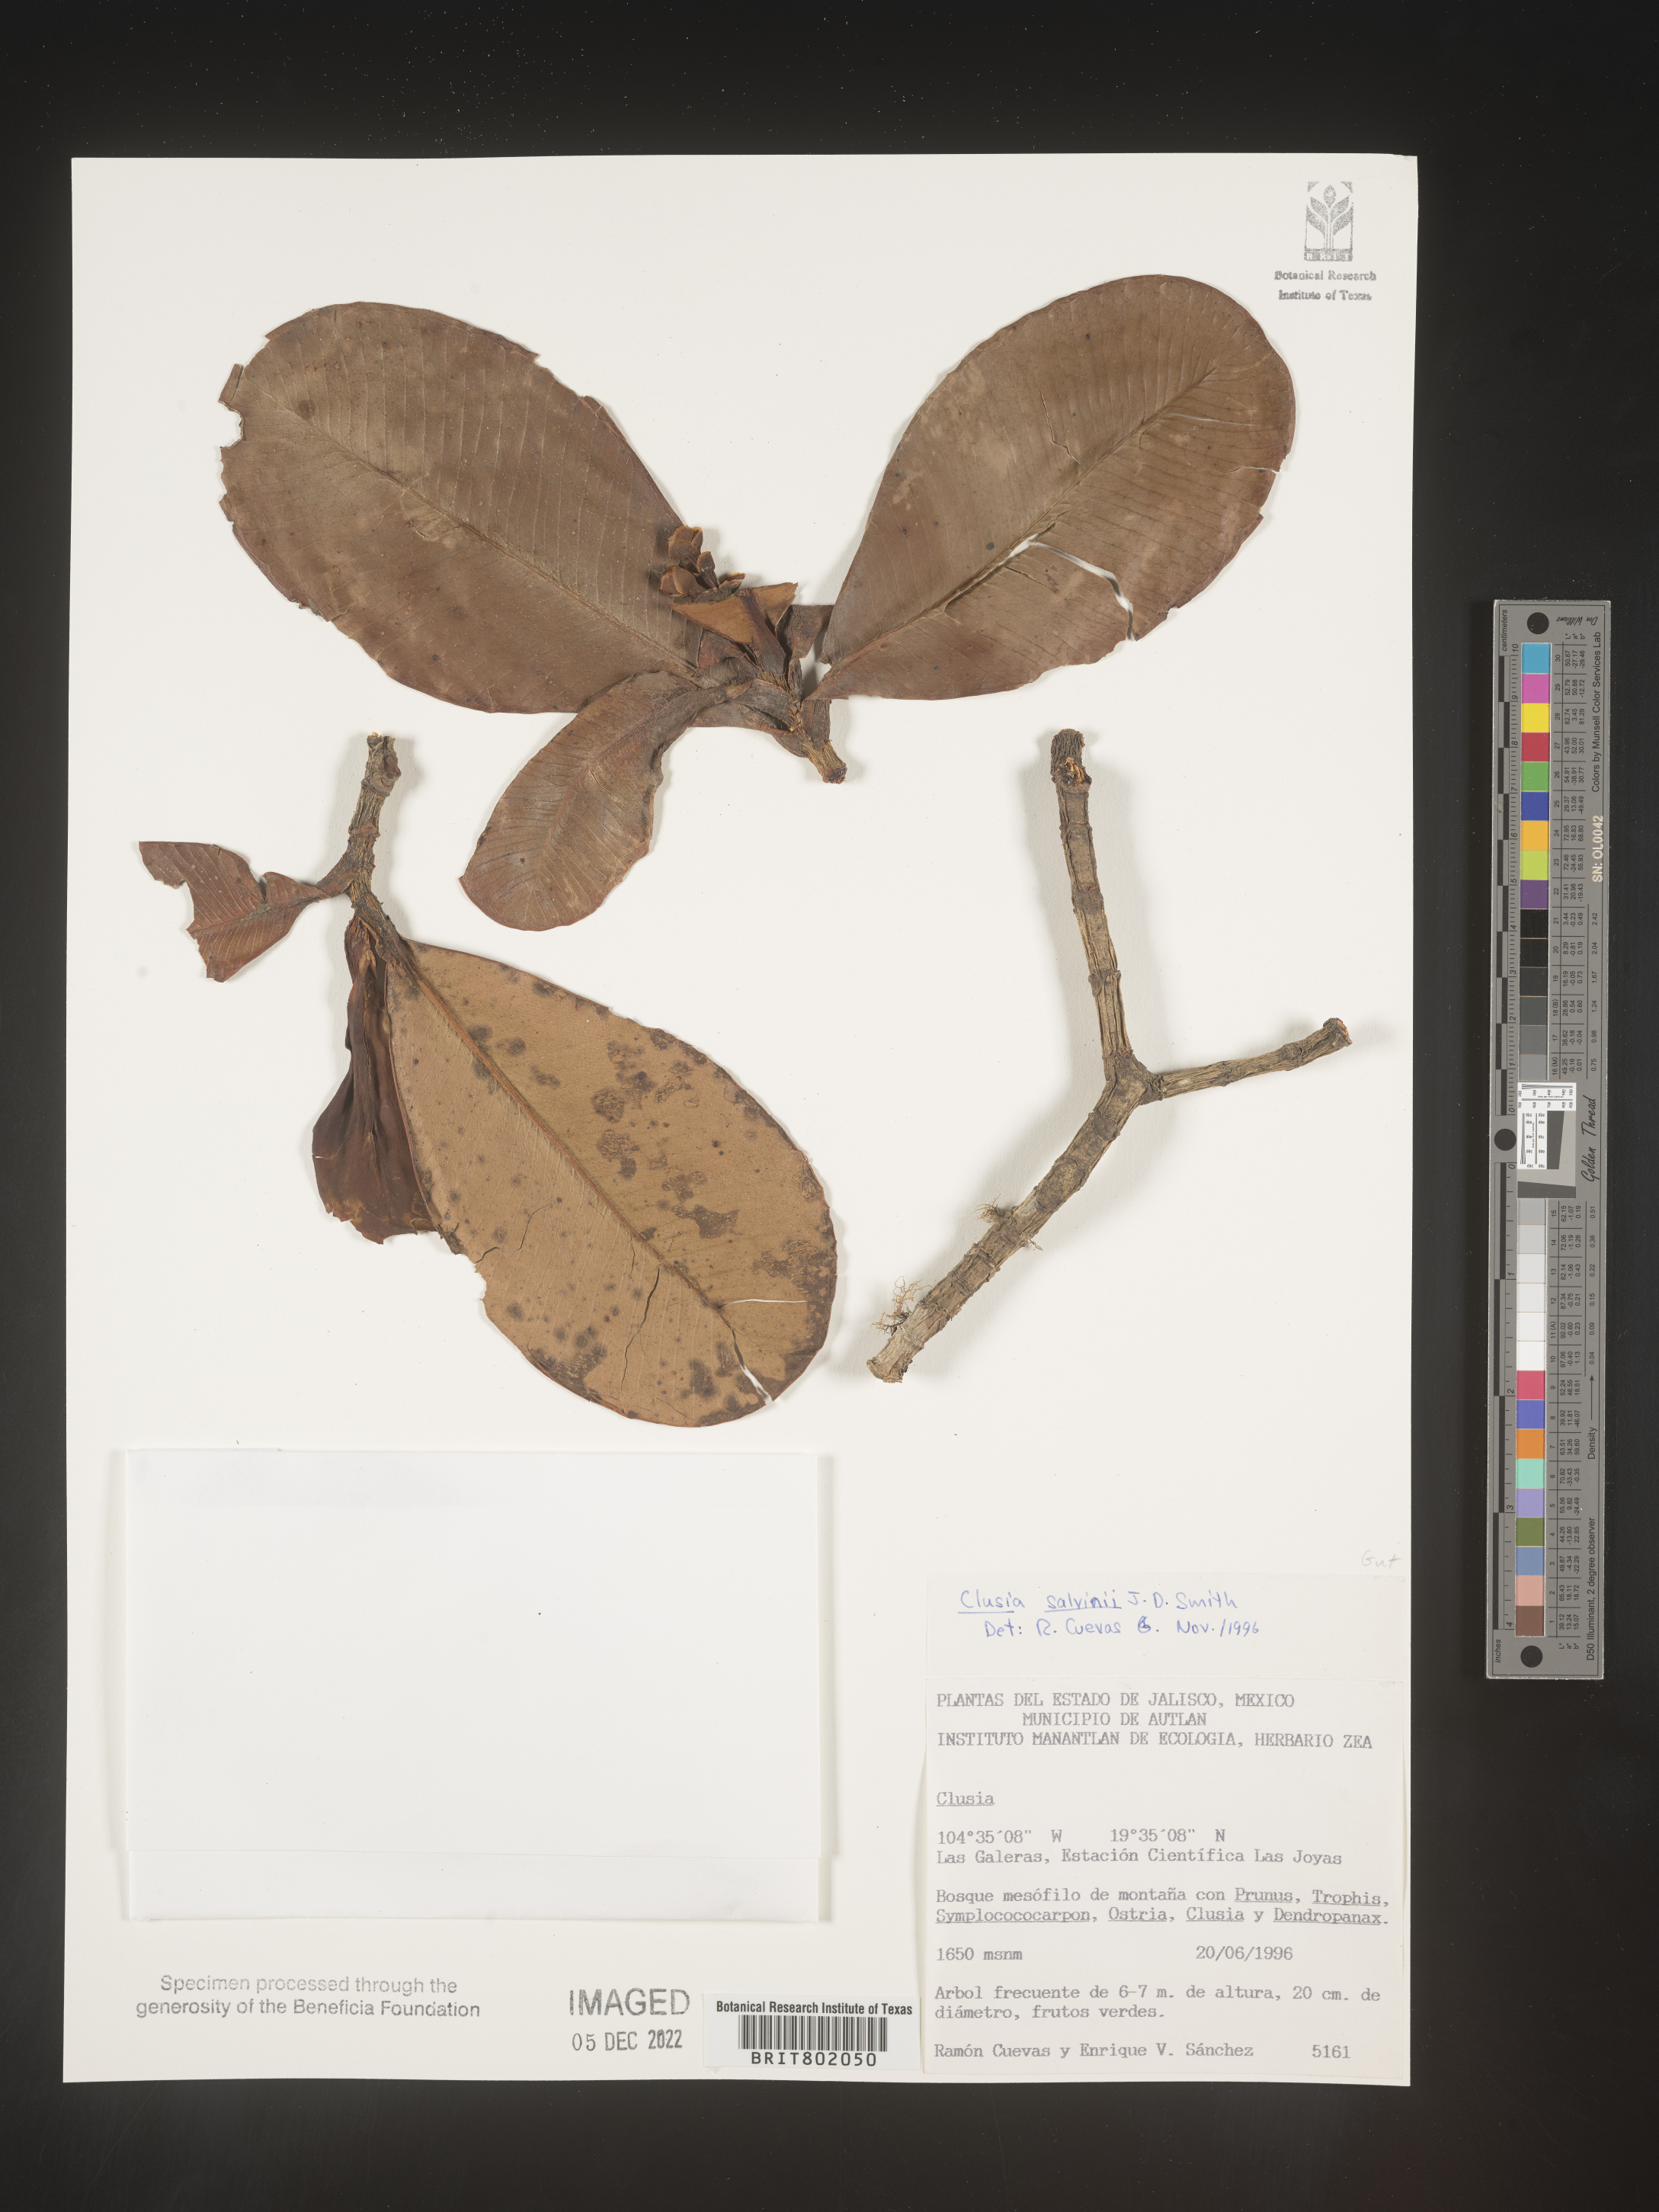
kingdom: Plantae
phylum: Tracheophyta
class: Magnoliopsida
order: Malpighiales
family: Clusiaceae
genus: Clusia
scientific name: Clusia
